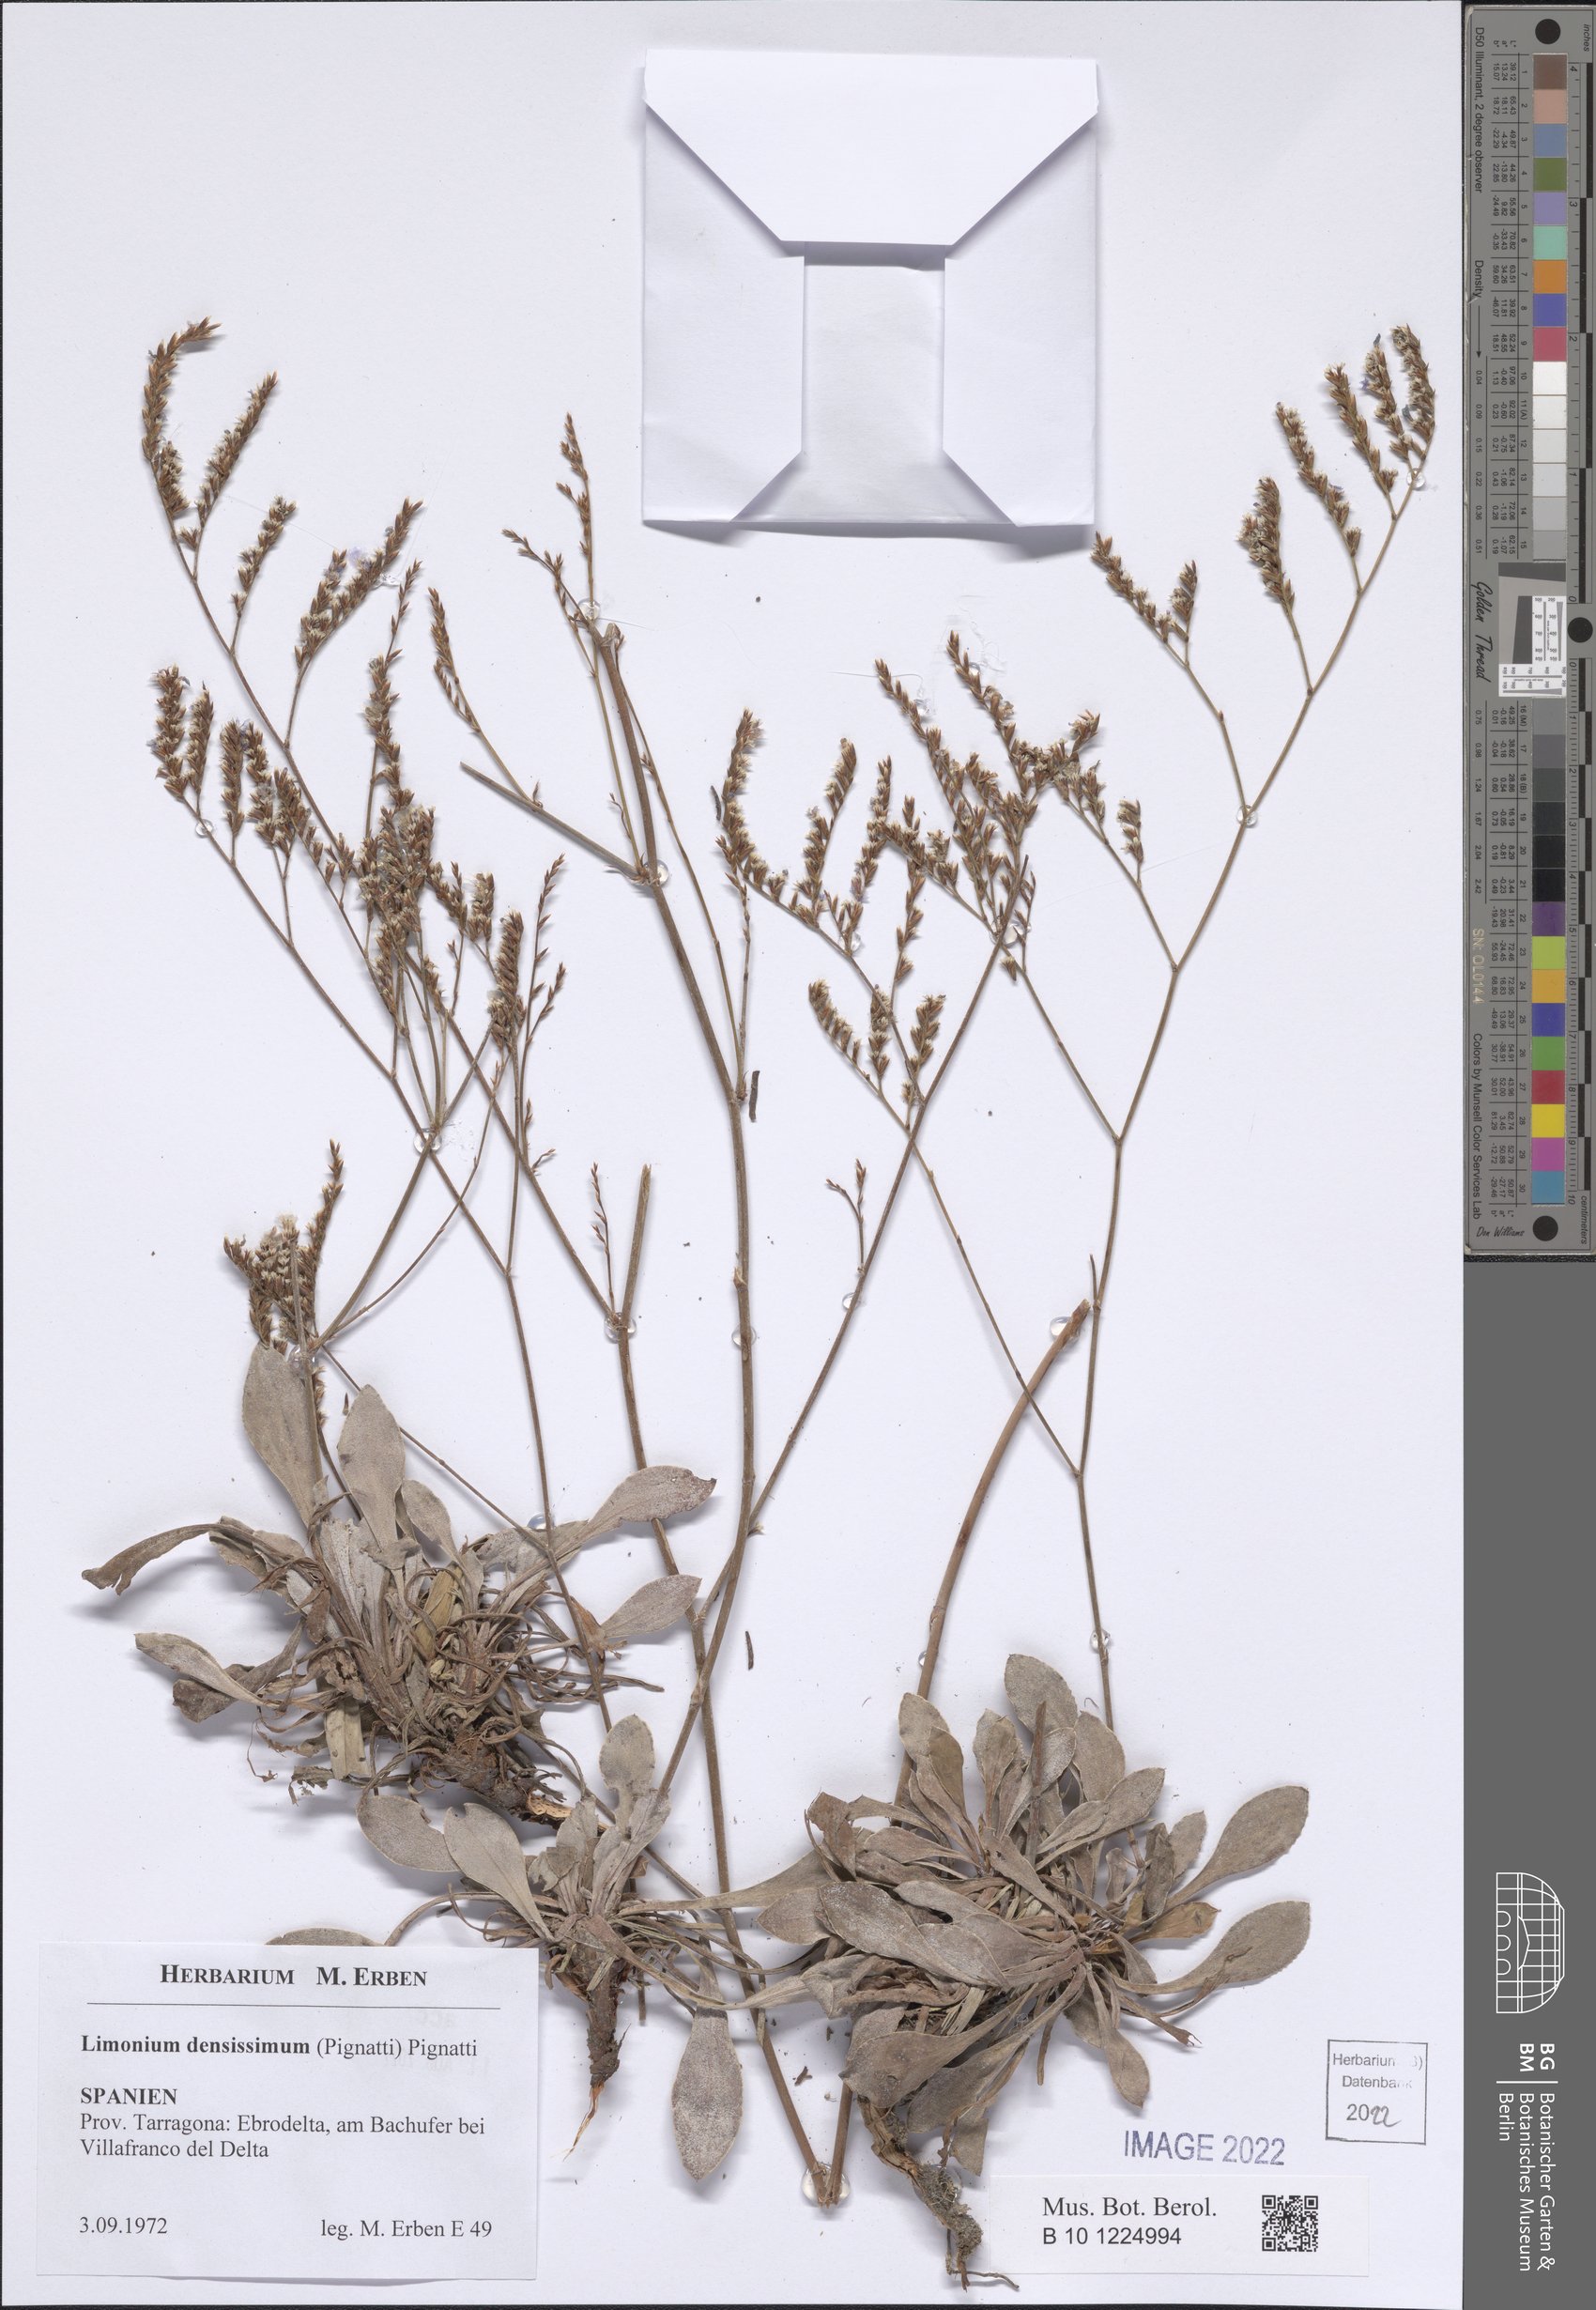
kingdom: Plantae
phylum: Tracheophyta
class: Magnoliopsida
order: Caryophyllales
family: Plumbaginaceae
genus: Limonium
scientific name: Limonium densissimum
